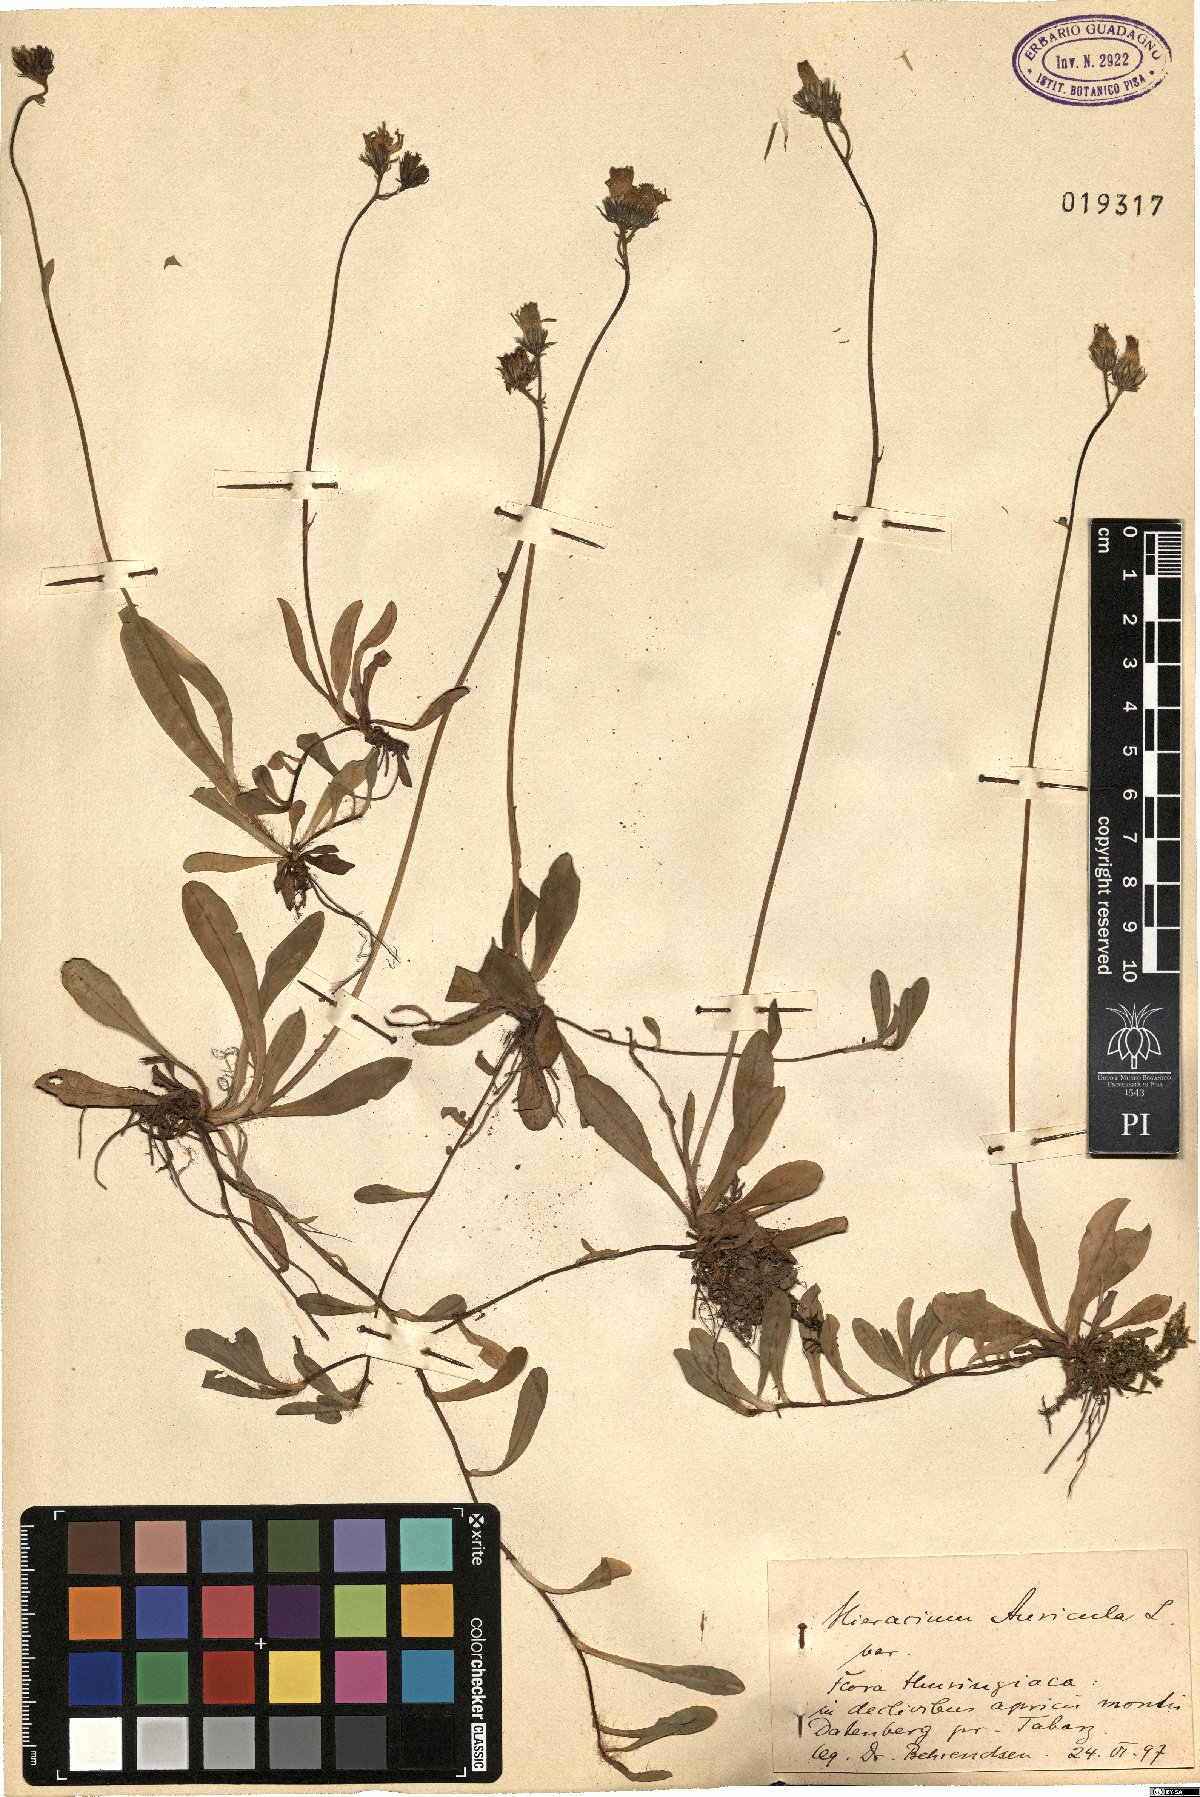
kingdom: Plantae
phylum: Tracheophyta
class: Magnoliopsida
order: Asterales
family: Asteraceae
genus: Pilosella
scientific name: Pilosella floribunda
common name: Glaucous hawkweed
